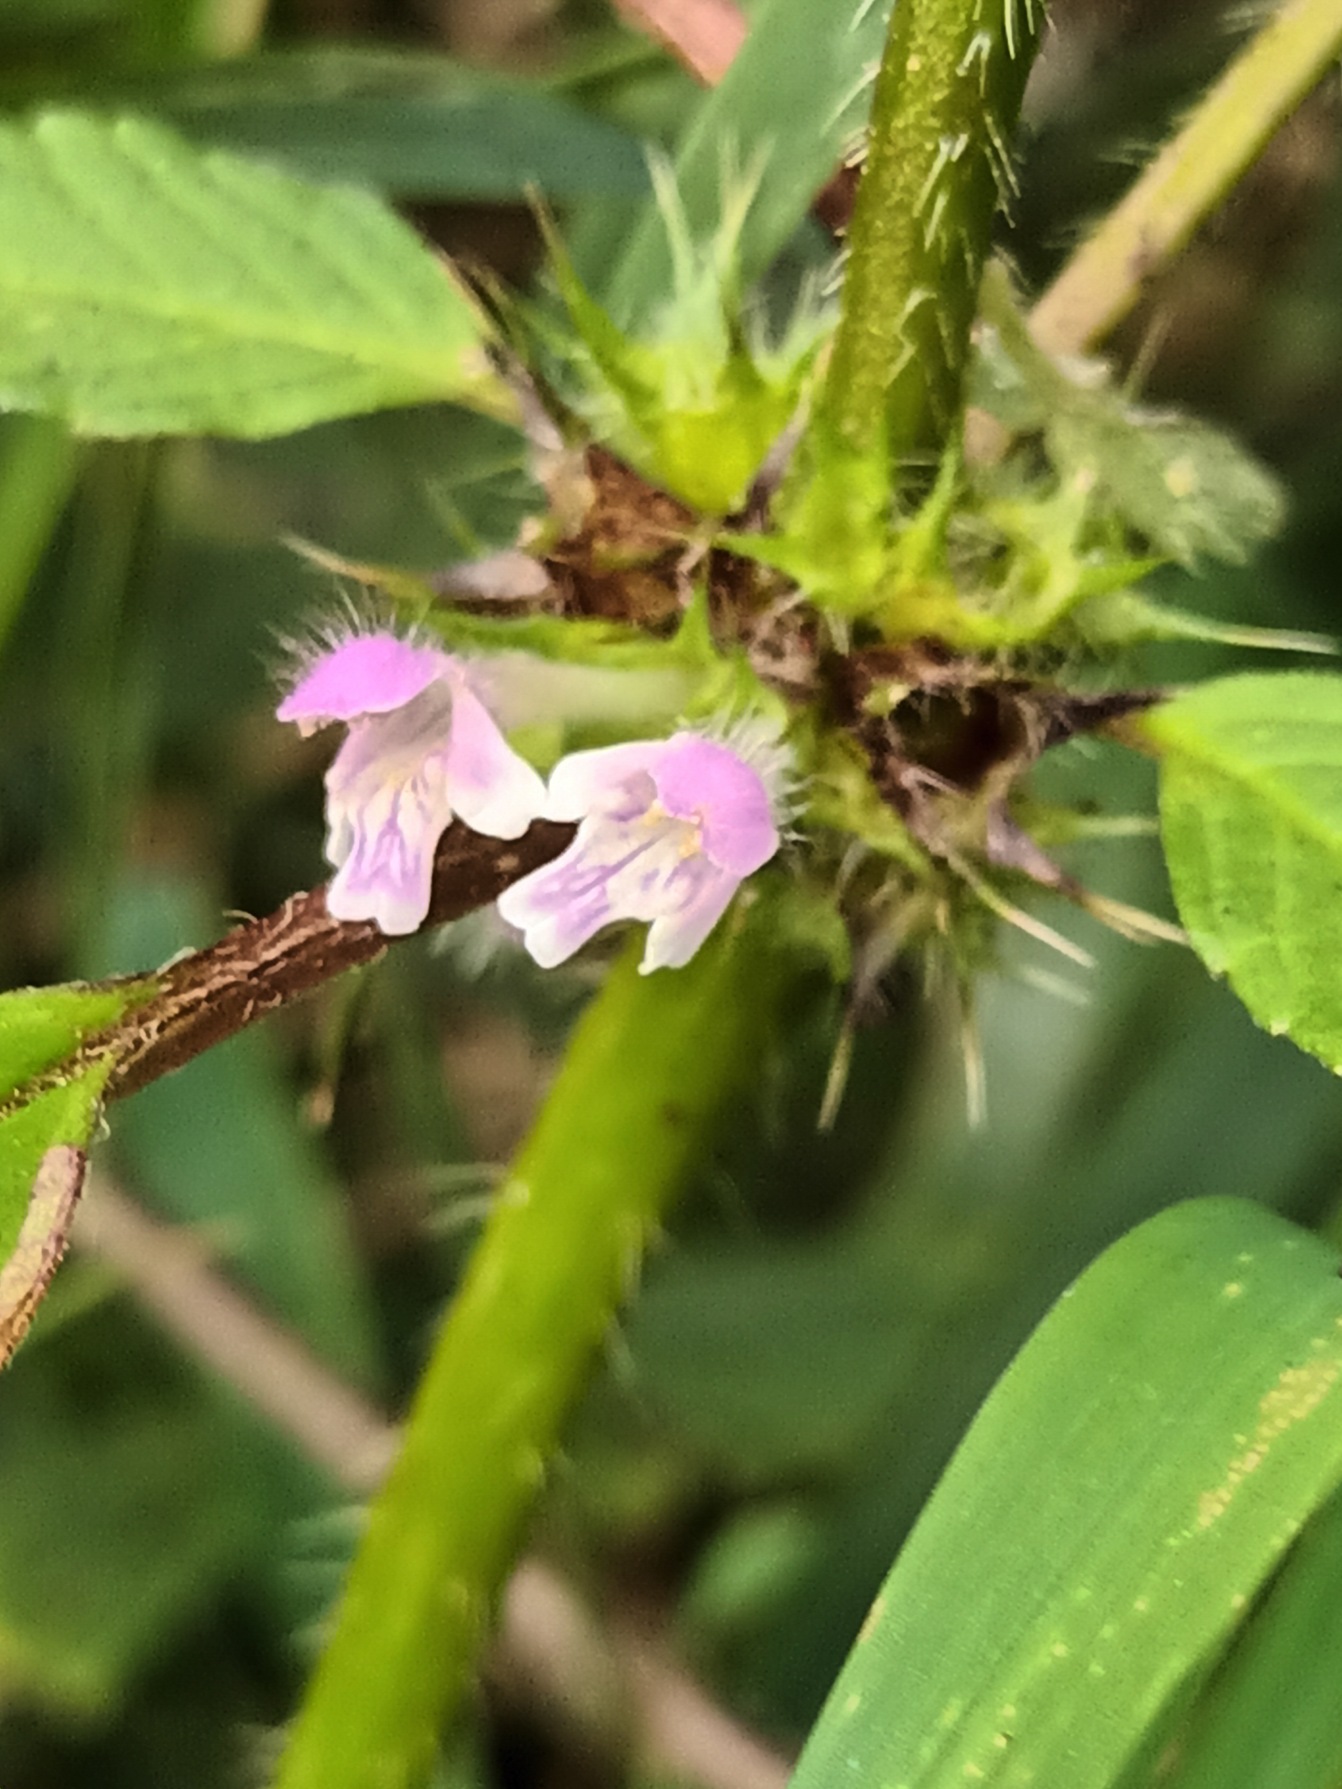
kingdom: Plantae
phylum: Tracheophyta
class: Magnoliopsida
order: Lamiales
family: Lamiaceae
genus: Galeopsis
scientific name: Galeopsis bifida
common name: Skov-hanekro
